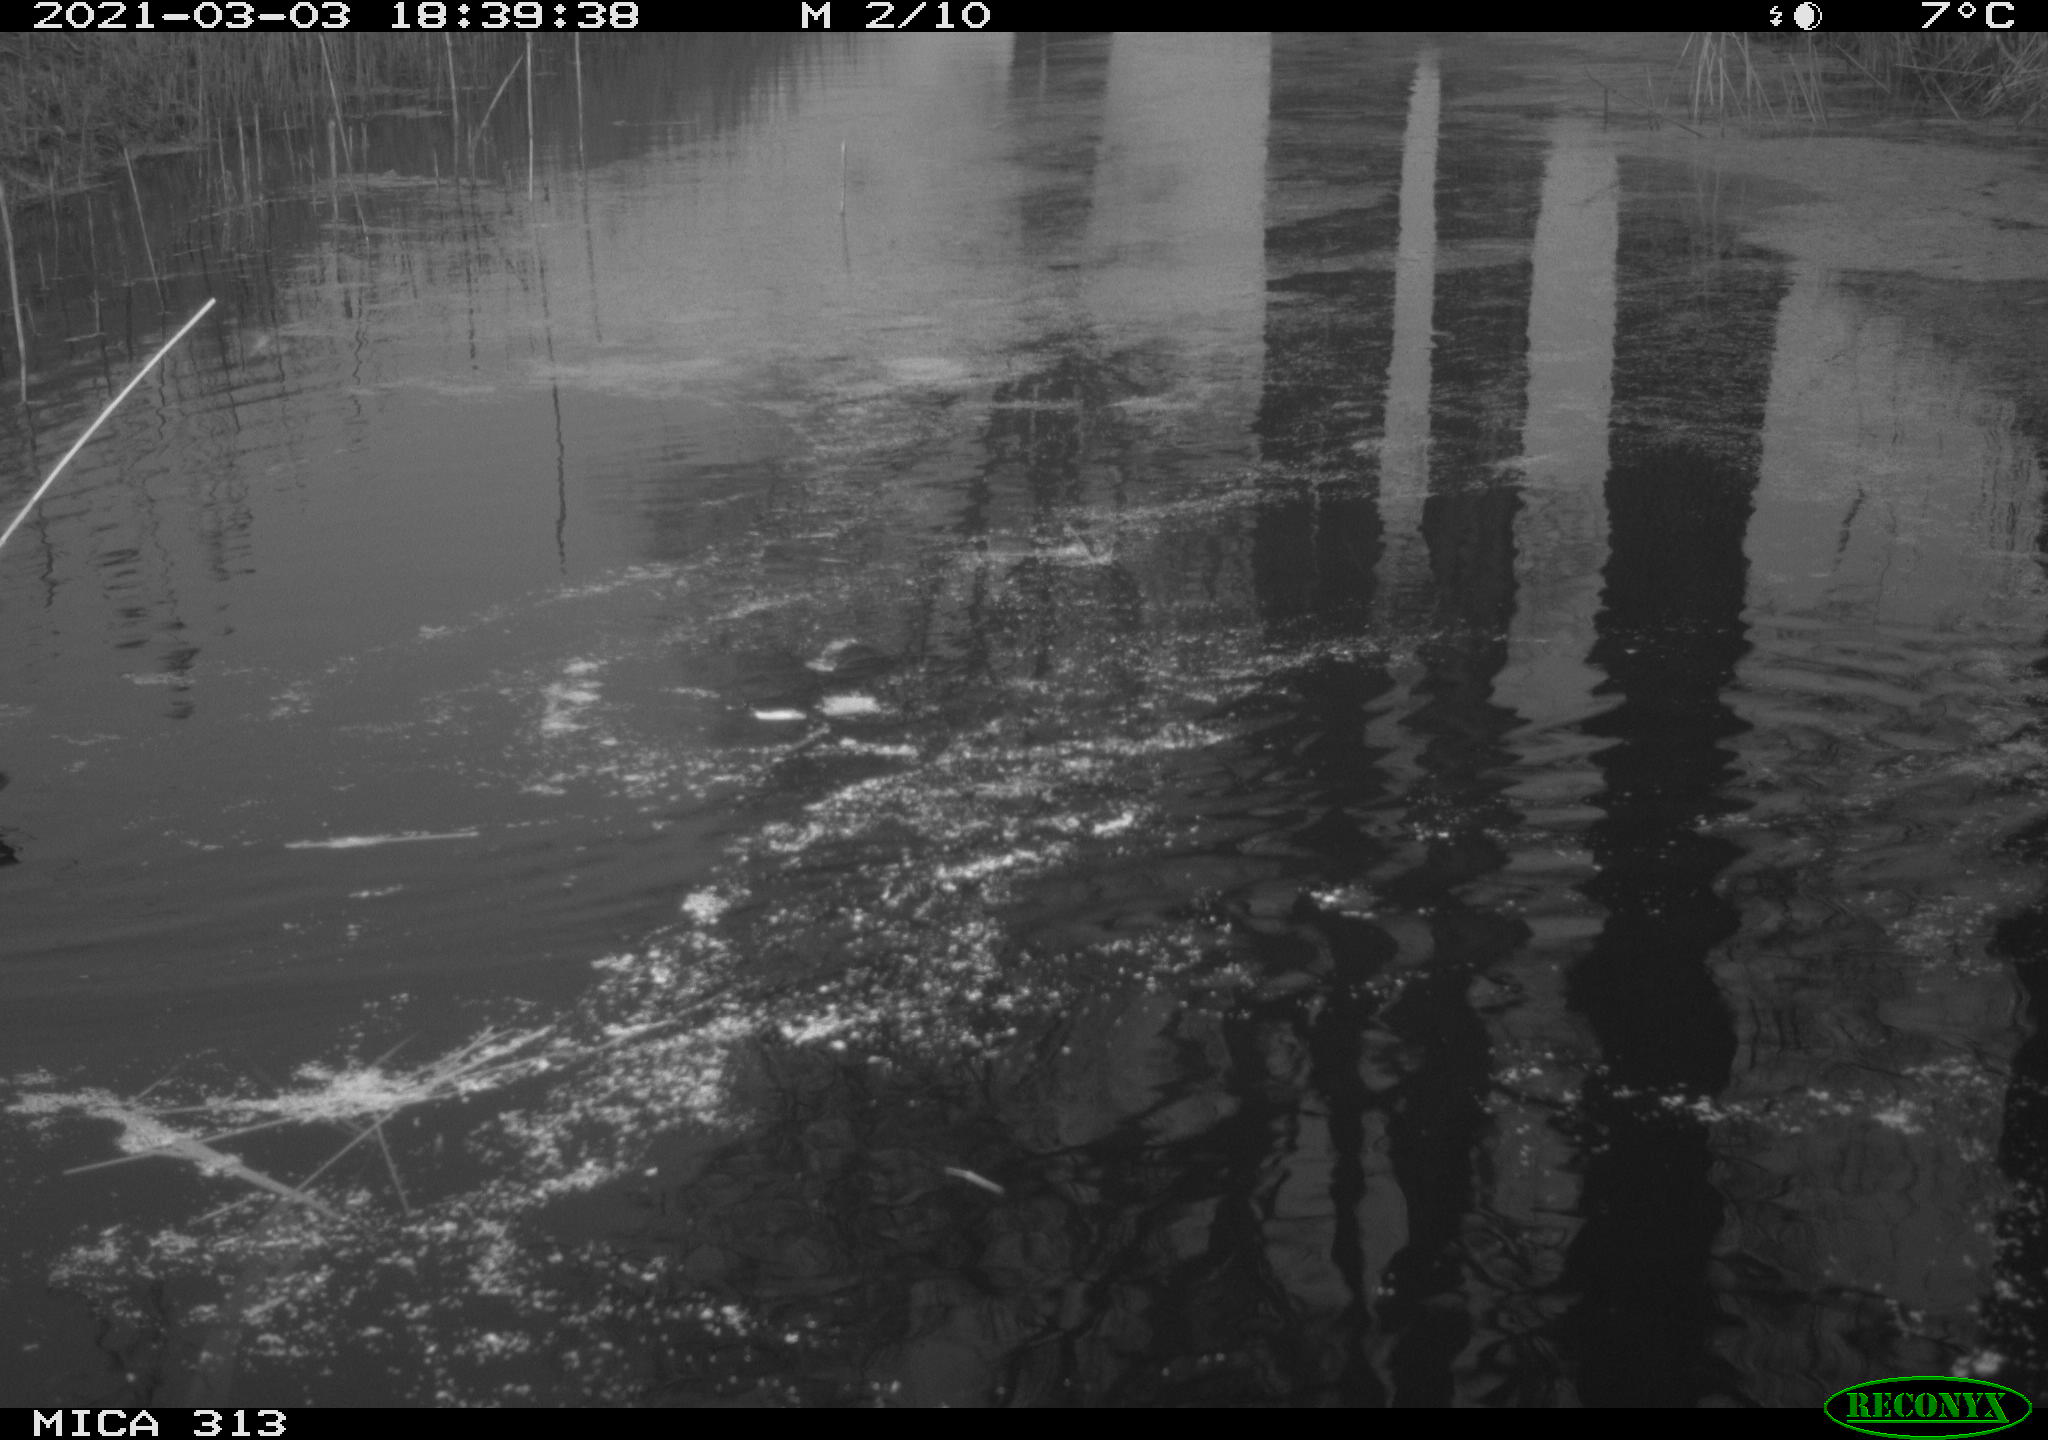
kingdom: Animalia
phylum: Chordata
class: Aves
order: Gruiformes
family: Rallidae
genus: Gallinula
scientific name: Gallinula chloropus
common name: Common moorhen
